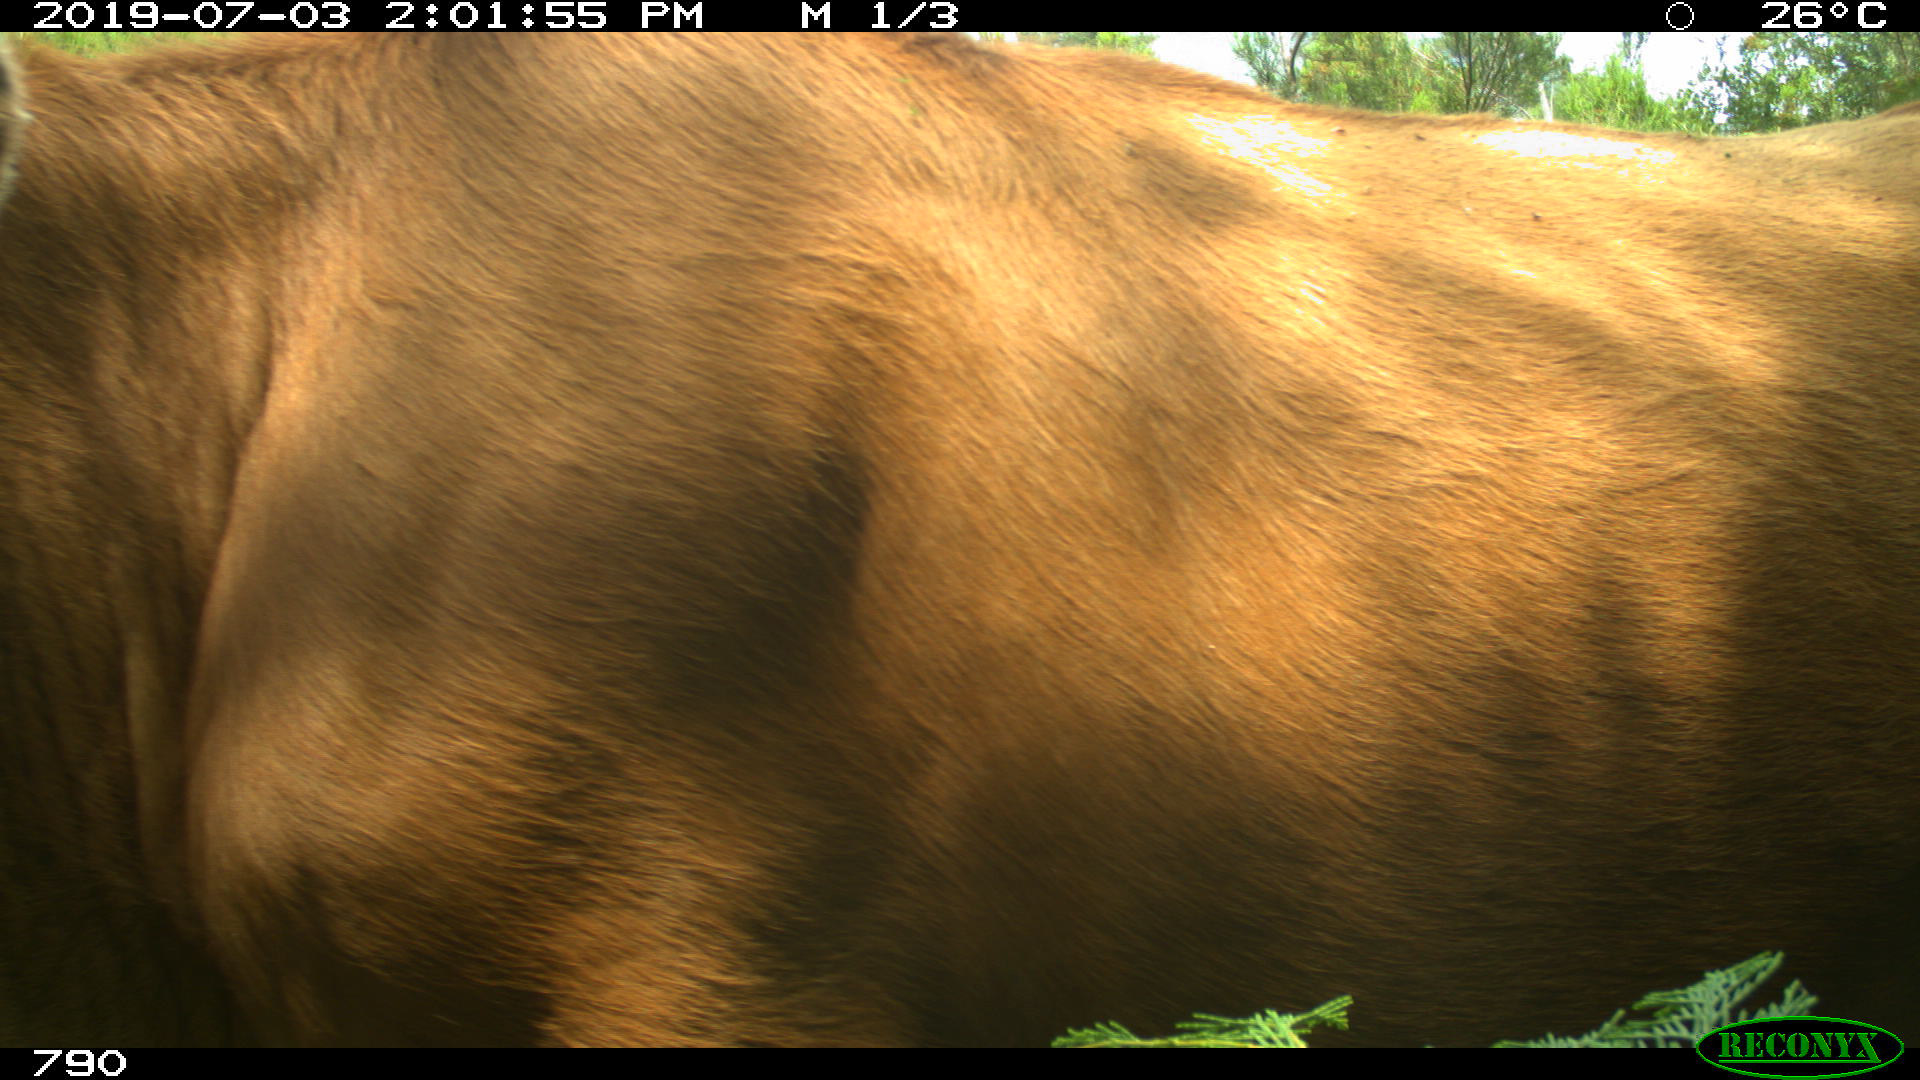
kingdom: Animalia
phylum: Chordata
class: Mammalia
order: Artiodactyla
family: Bovidae
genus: Bos
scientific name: Bos taurus
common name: Domesticated cattle
